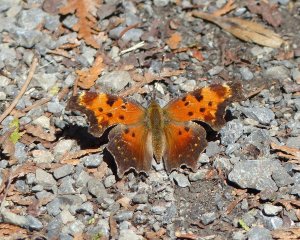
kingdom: Animalia
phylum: Arthropoda
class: Insecta
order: Lepidoptera
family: Nymphalidae
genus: Polygonia
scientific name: Polygonia progne
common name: Gray Comma
